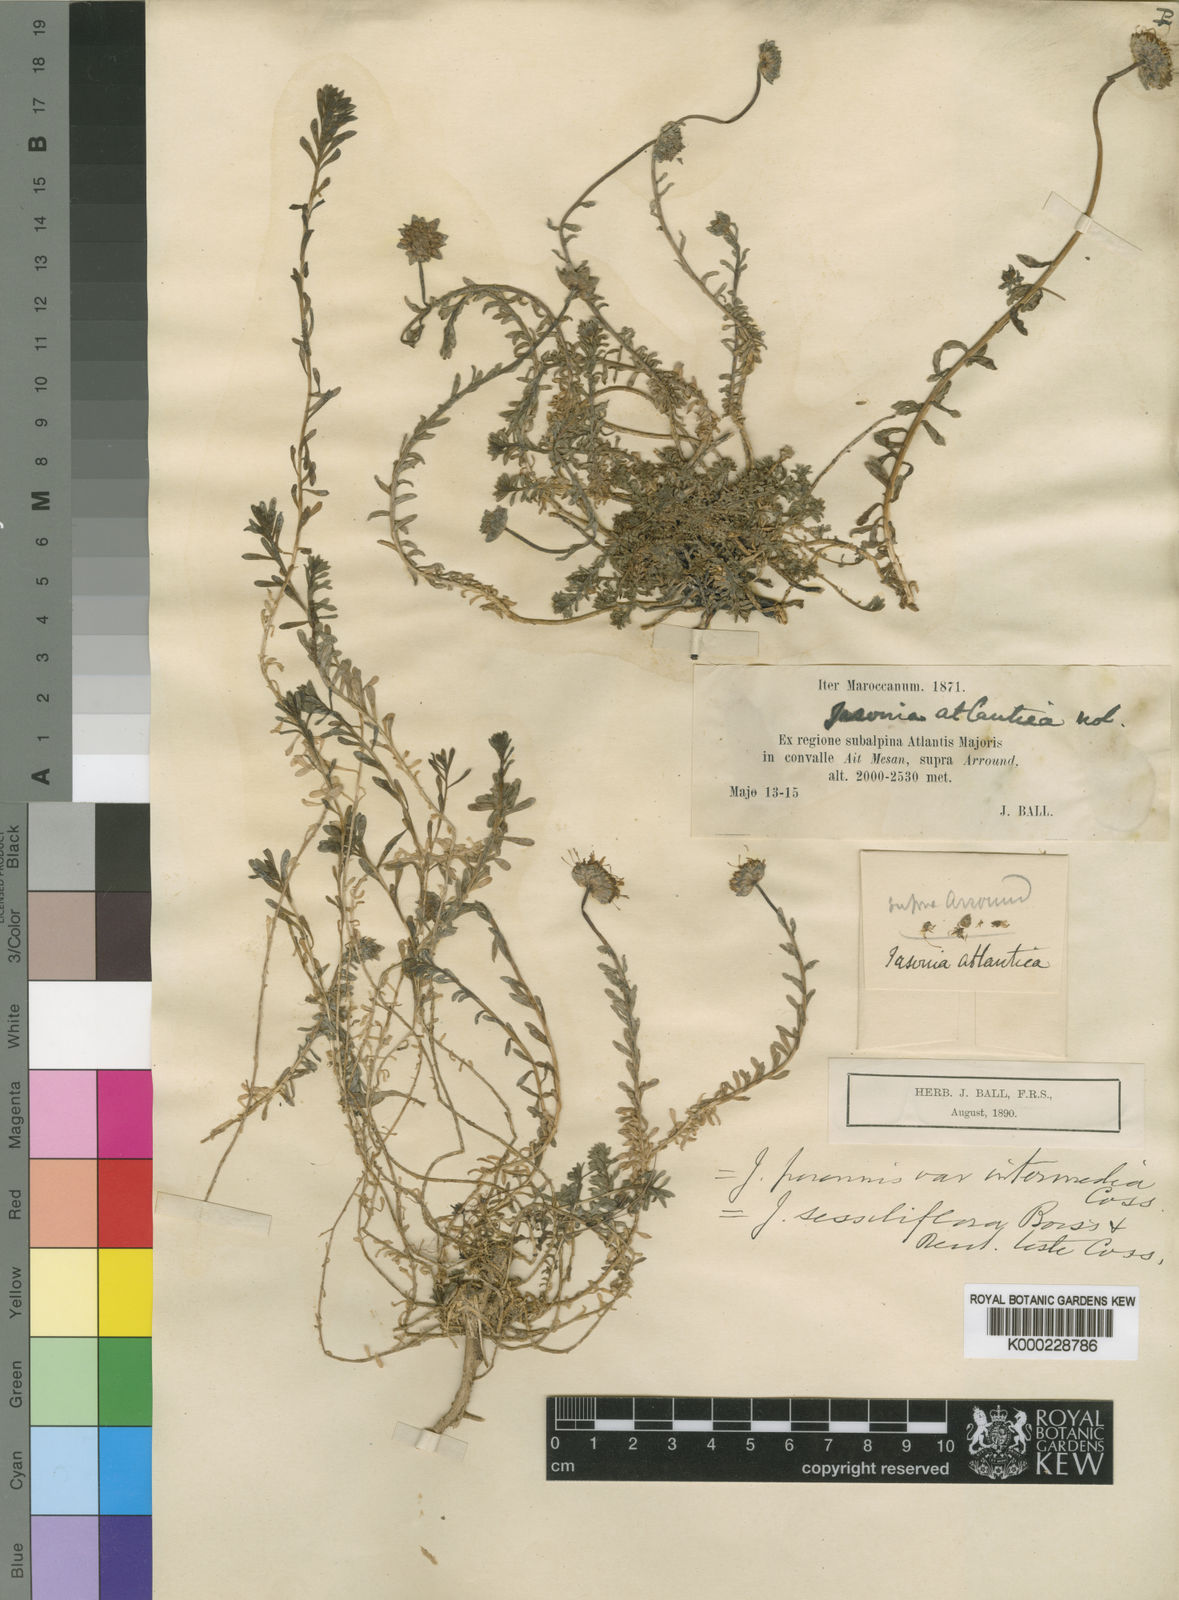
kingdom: Plantae
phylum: Tracheophyta
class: Magnoliopsida
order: Asterales
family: Campanulaceae
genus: Jasione
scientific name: Jasione crispa
